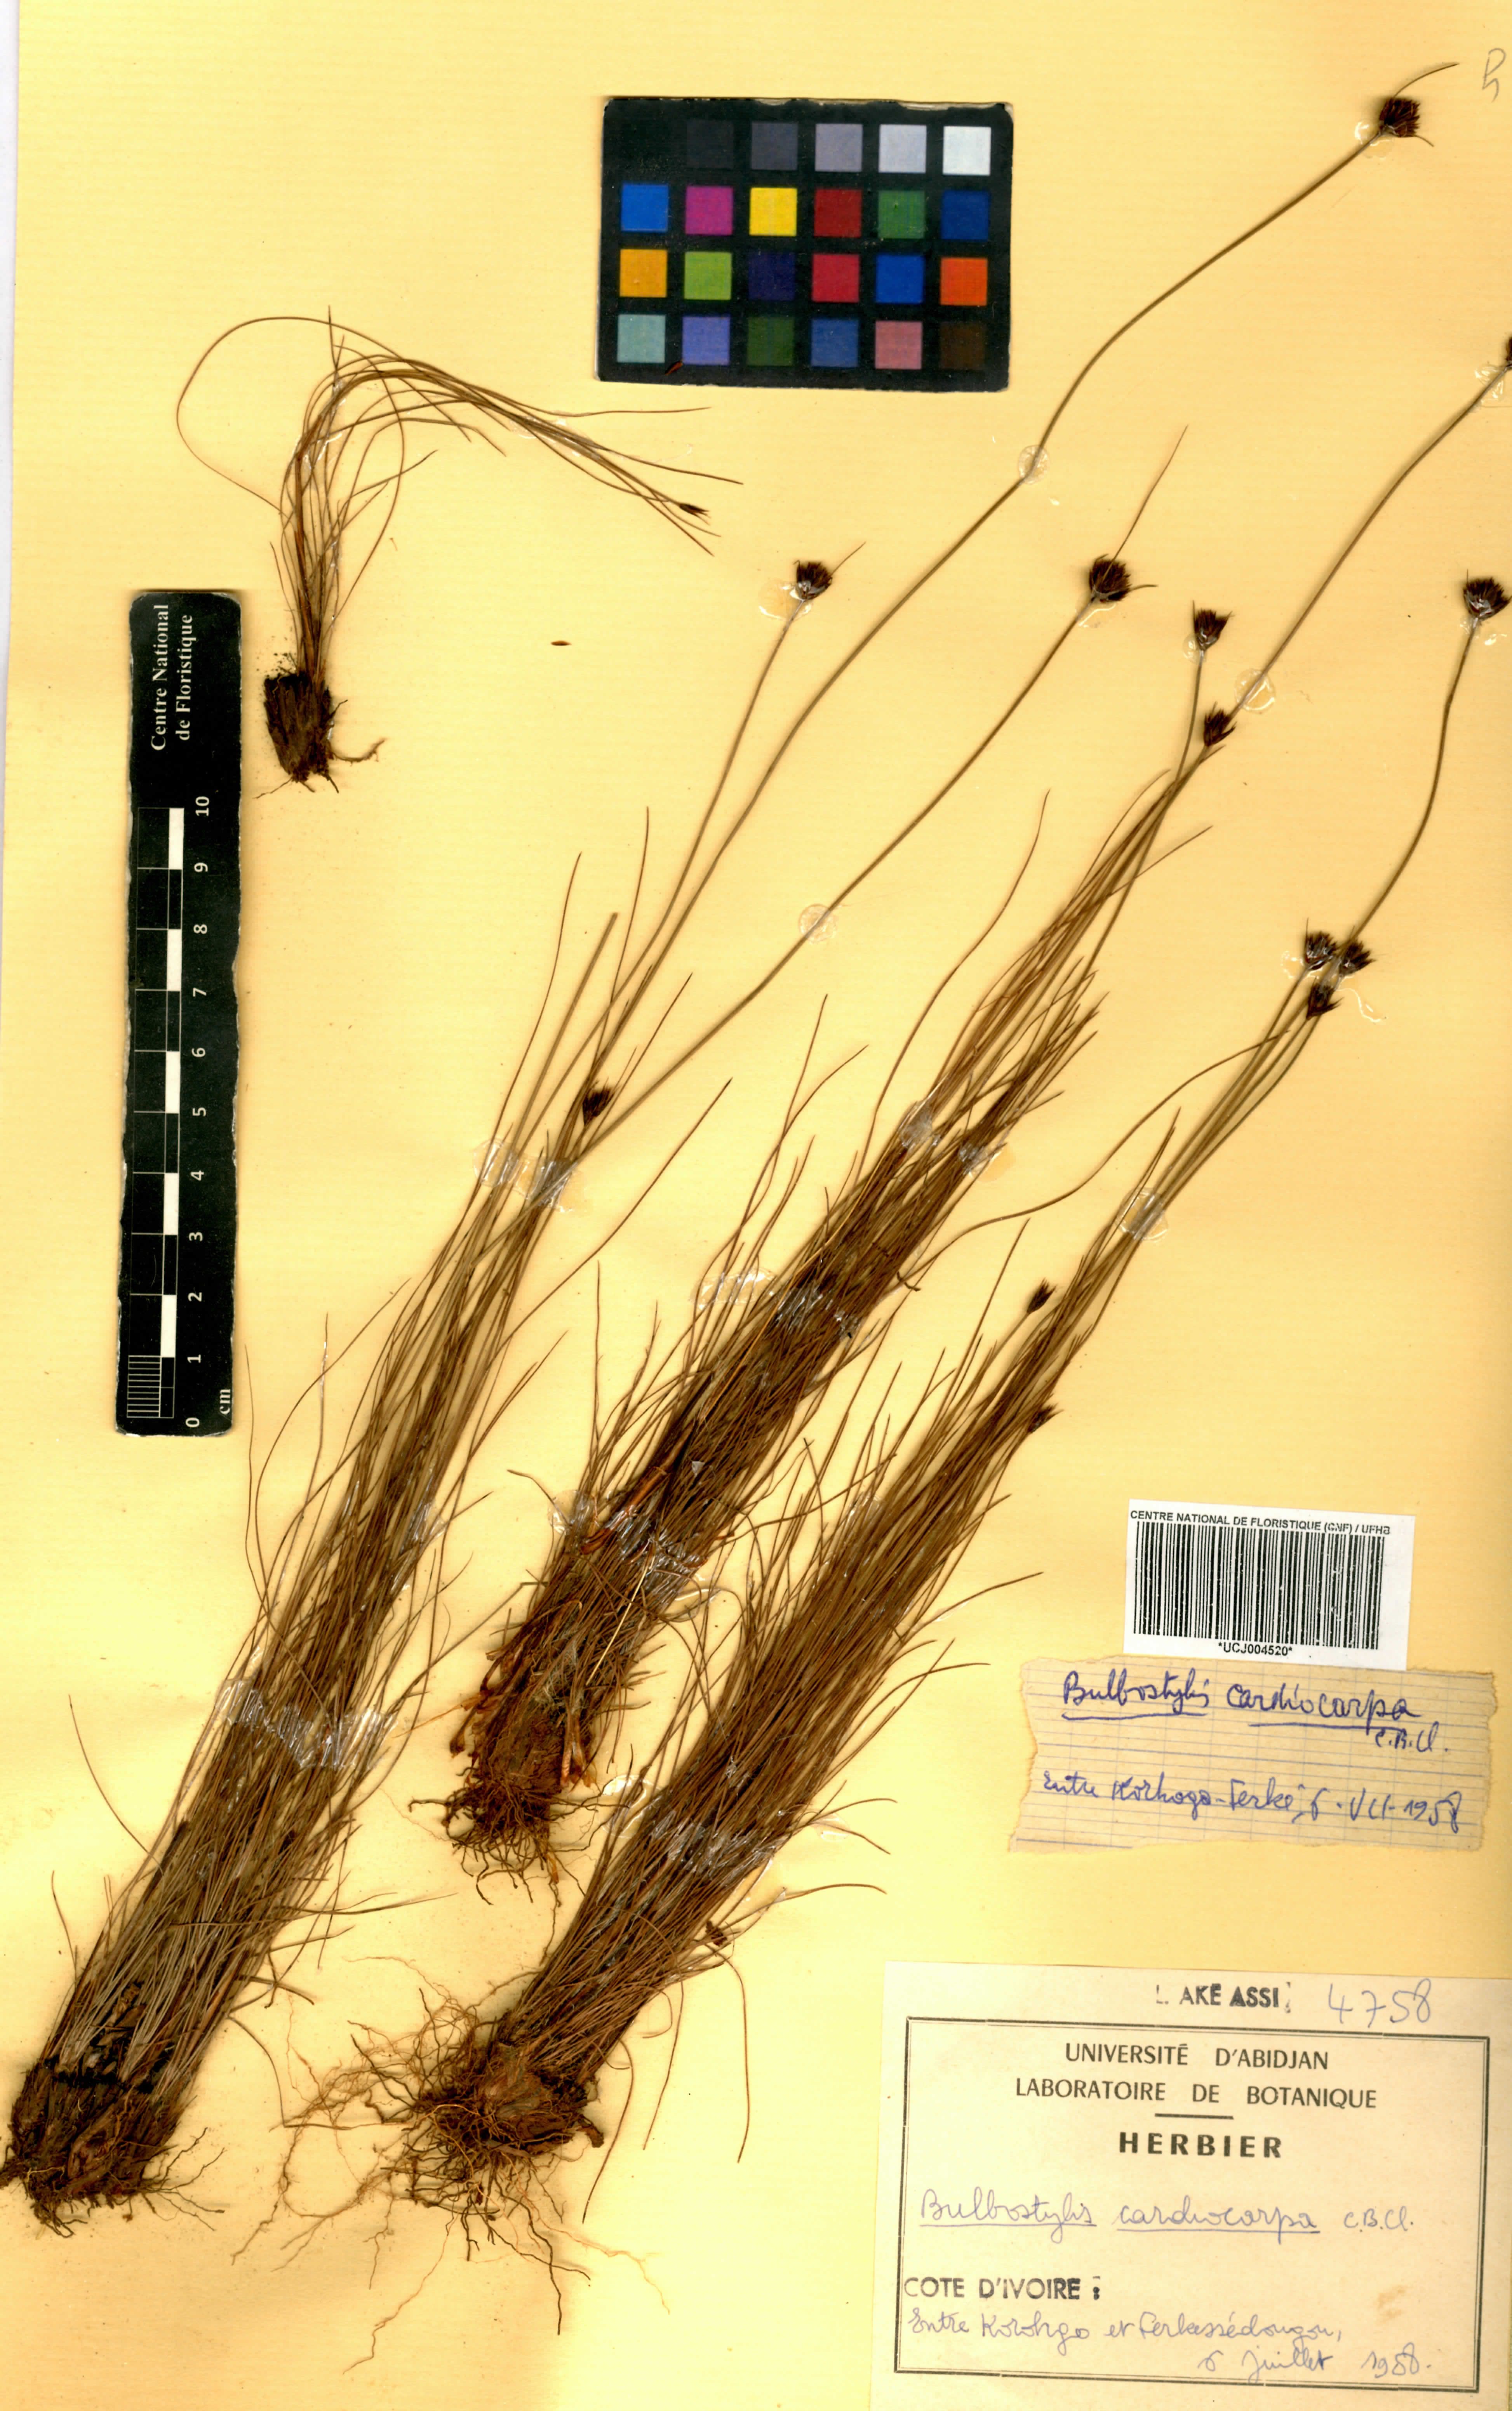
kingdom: Plantae
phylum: Tracheophyta
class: Liliopsida
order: Poales
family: Cyperaceae
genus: Bulbostylis
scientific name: Bulbostylis filamentosa
